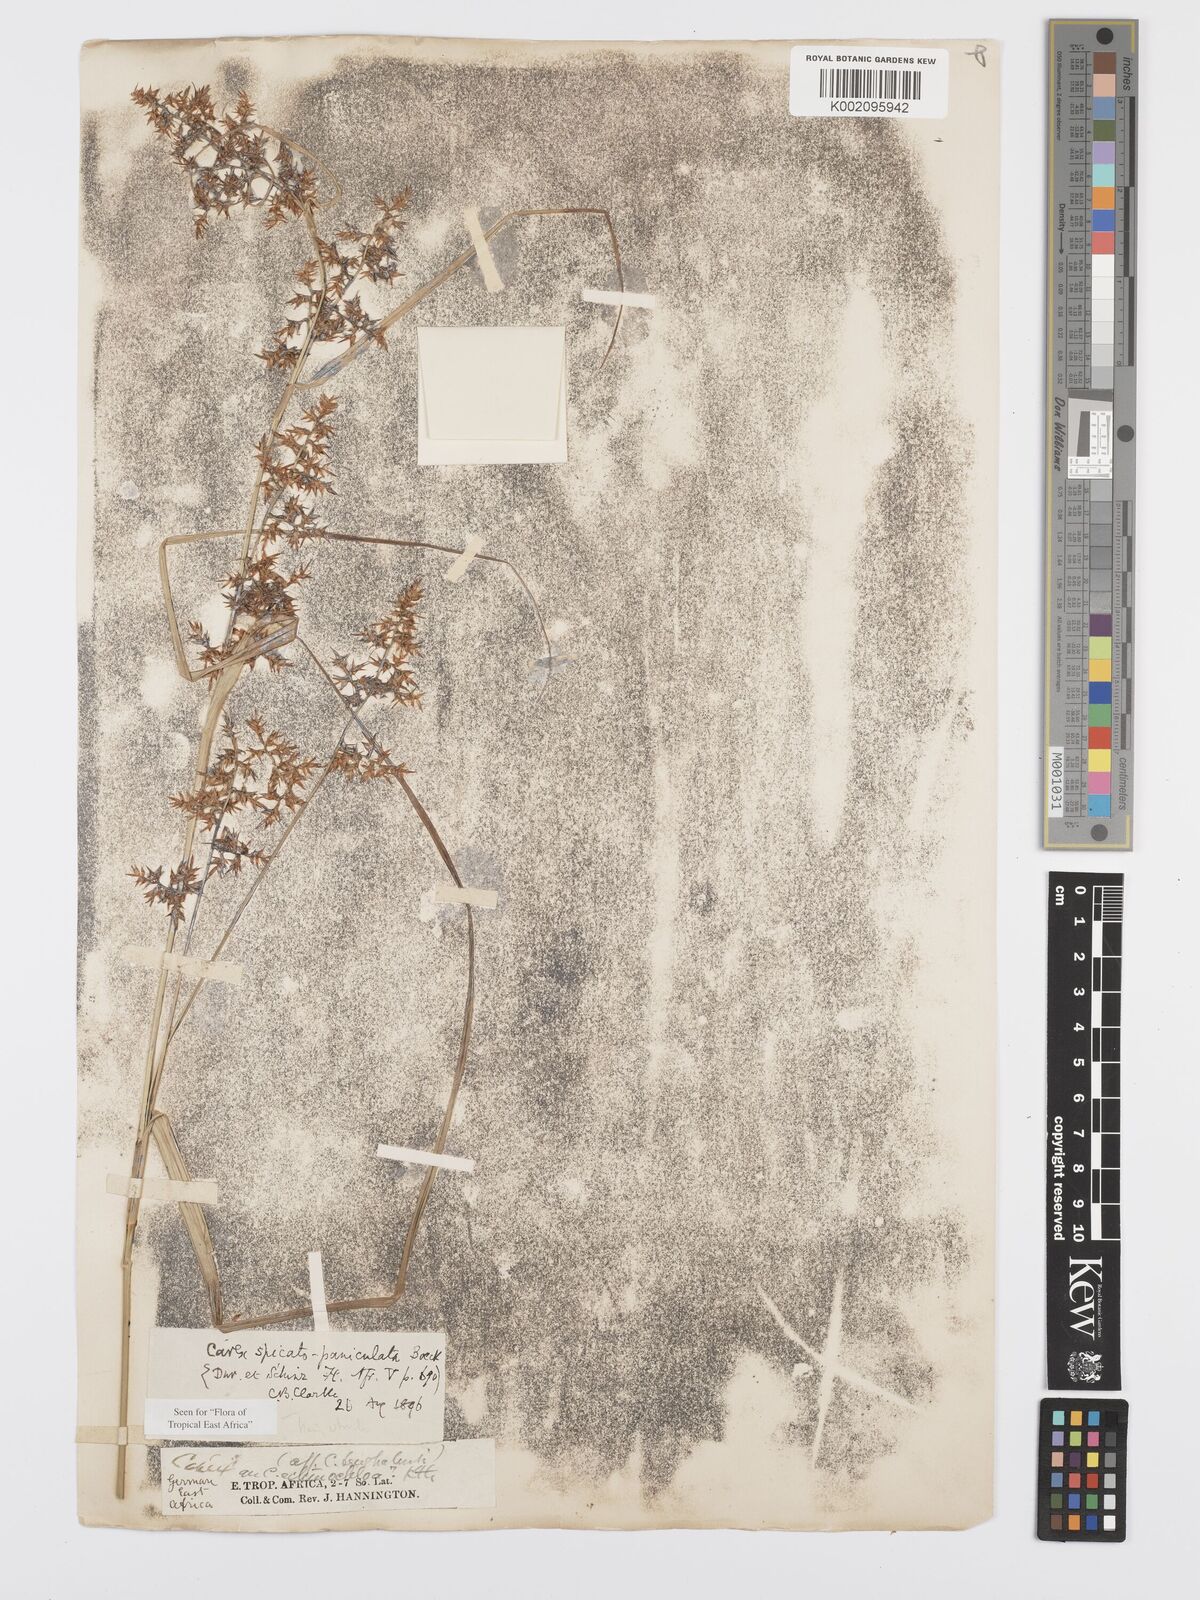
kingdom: Plantae
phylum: Tracheophyta
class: Liliopsida
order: Poales
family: Cyperaceae
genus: Carex
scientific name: Carex spicatopaniculata
